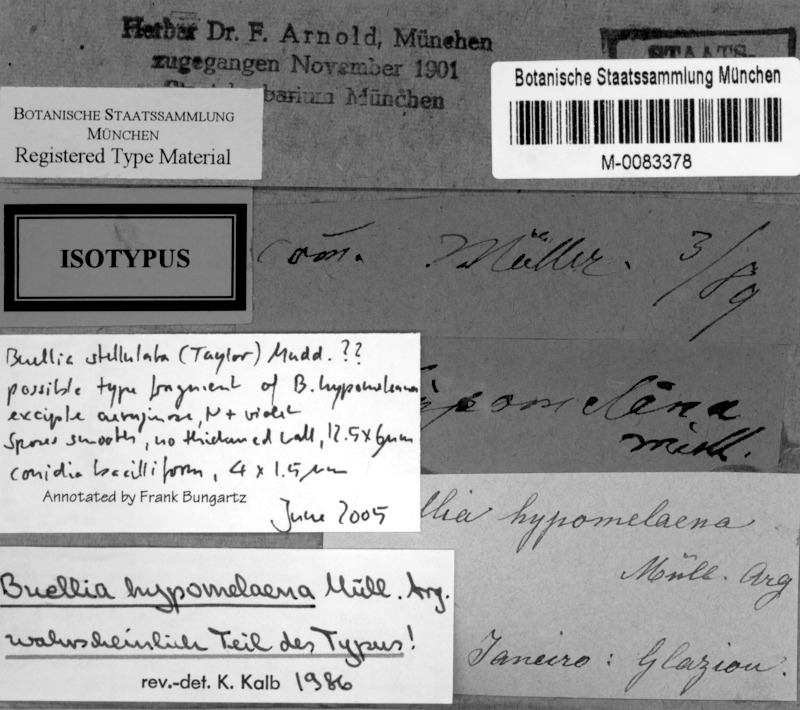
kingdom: Fungi
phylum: Ascomycota
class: Lecanoromycetes
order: Caliciales
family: Caliciaceae
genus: Buellia
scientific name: Buellia hypomelaena
